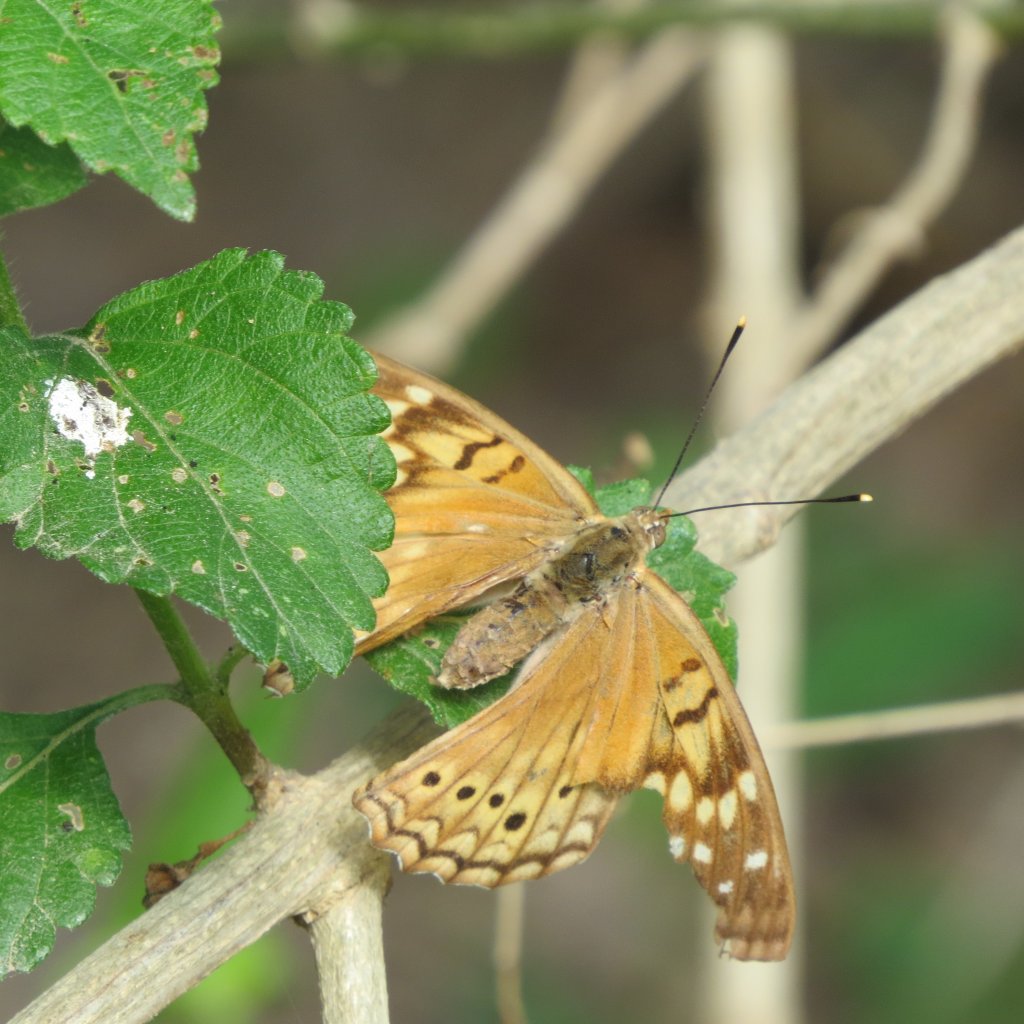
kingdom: Animalia
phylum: Arthropoda
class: Insecta
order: Lepidoptera
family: Nymphalidae
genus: Asterocampa
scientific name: Asterocampa clyton
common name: Tawny Emperor
